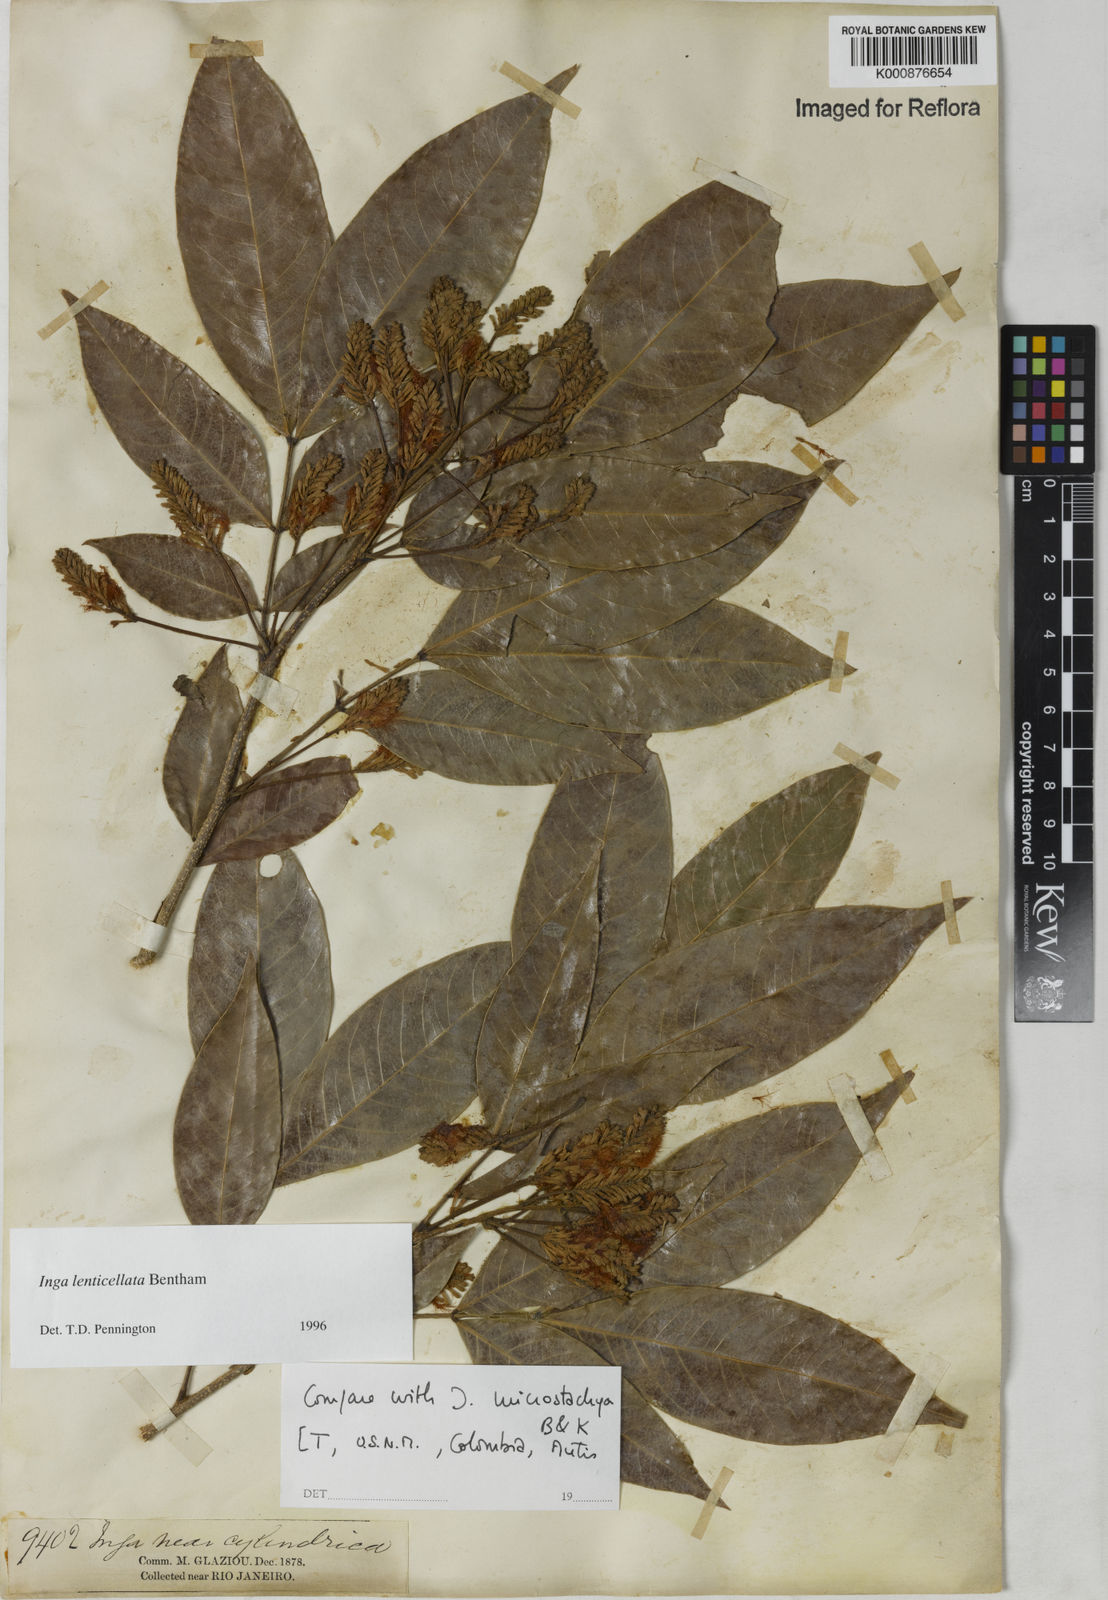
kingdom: Plantae
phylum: Tracheophyta
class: Magnoliopsida
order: Fabales
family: Fabaceae
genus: Inga
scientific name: Inga lenticellata
